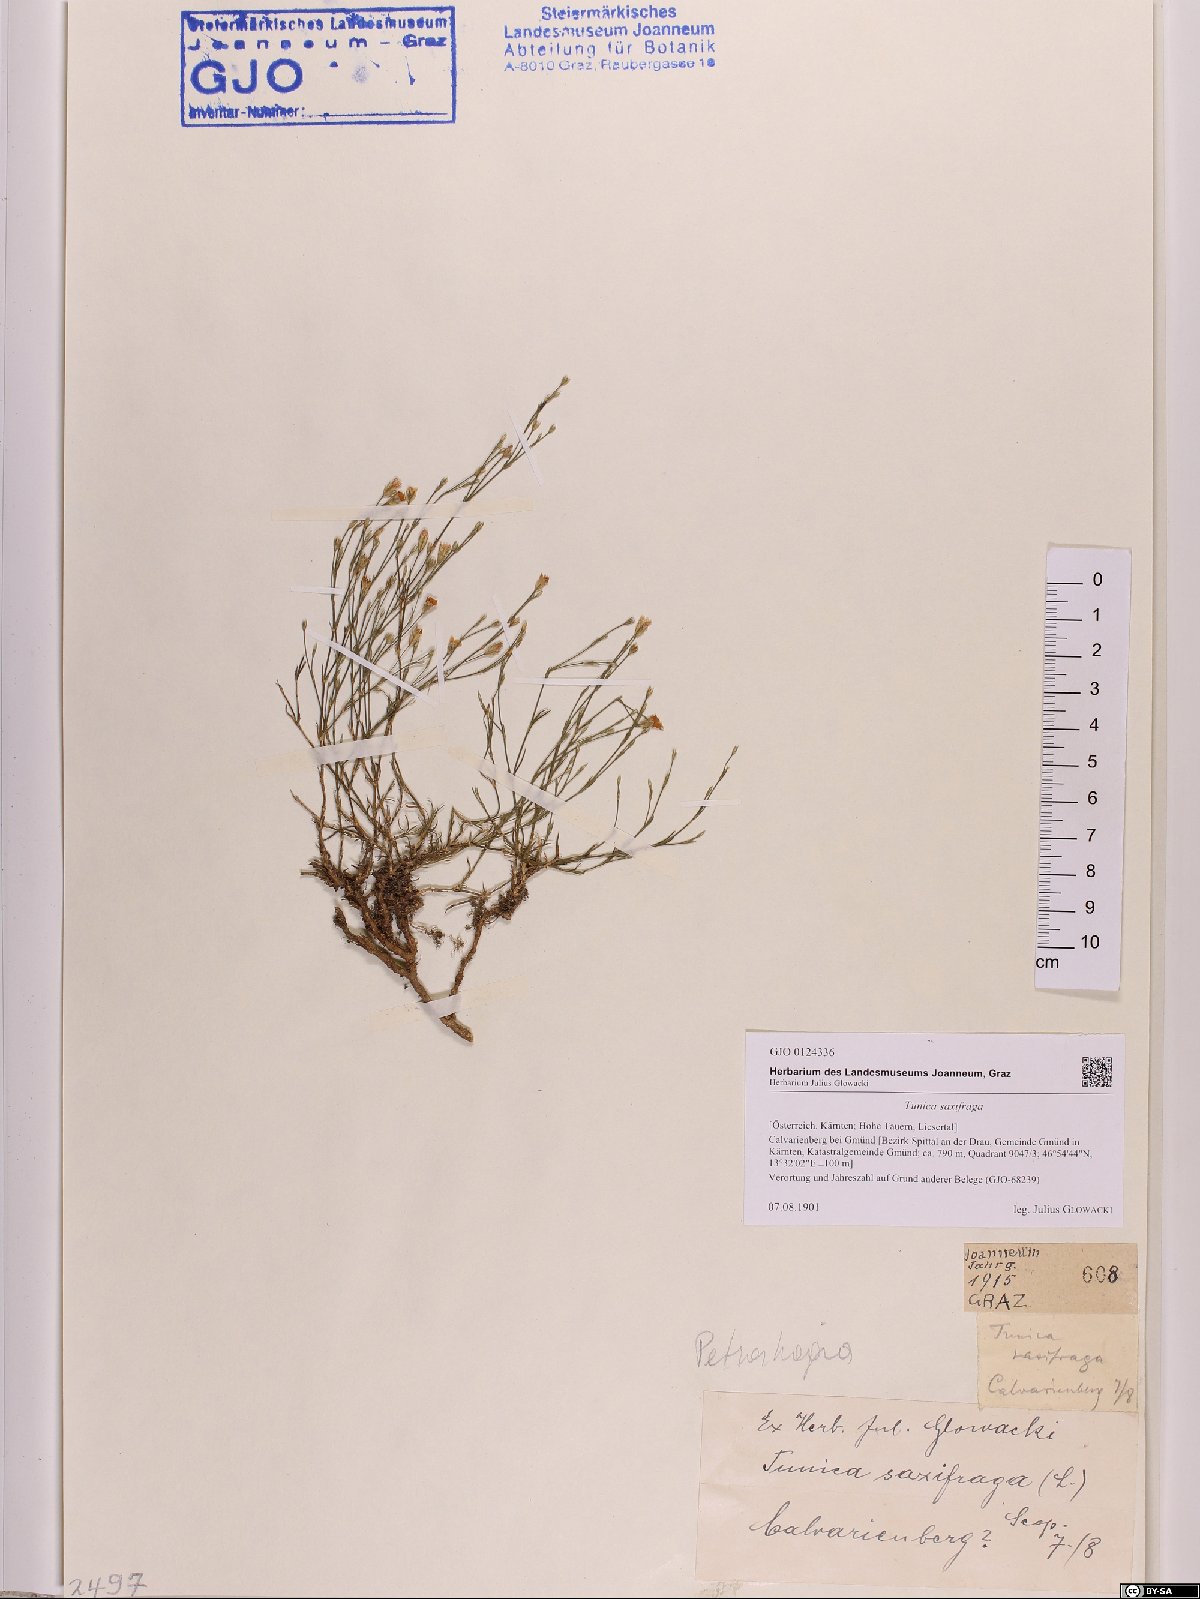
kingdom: Plantae
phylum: Tracheophyta
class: Magnoliopsida
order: Caryophyllales
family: Caryophyllaceae
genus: Petrorhagia
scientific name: Petrorhagia saxifraga
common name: Tunicflower
